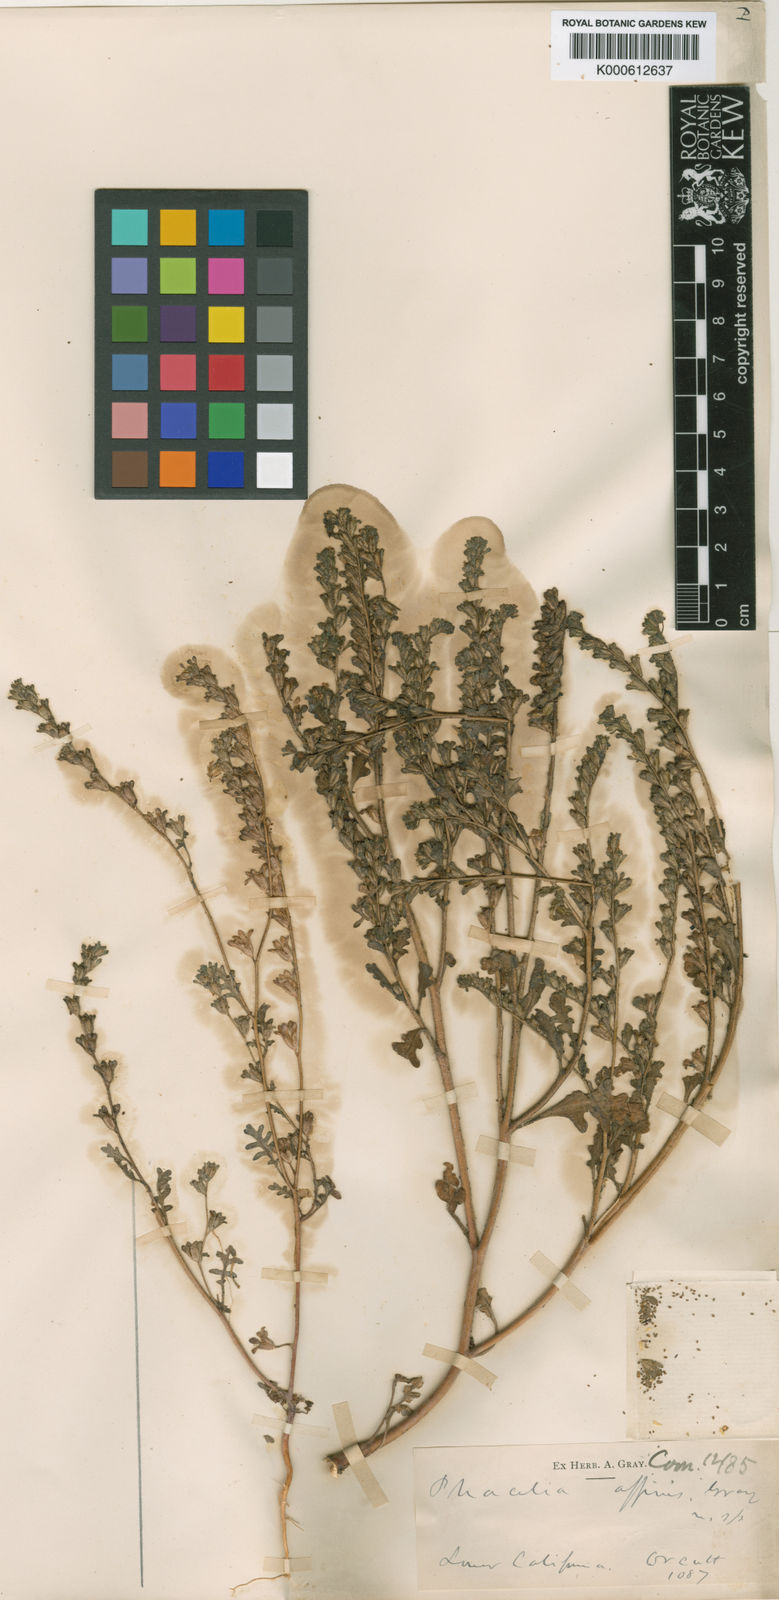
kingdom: Plantae
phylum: Tracheophyta
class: Magnoliopsida
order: Boraginales
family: Hydrophyllaceae
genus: Phacelia
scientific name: Phacelia affinis
